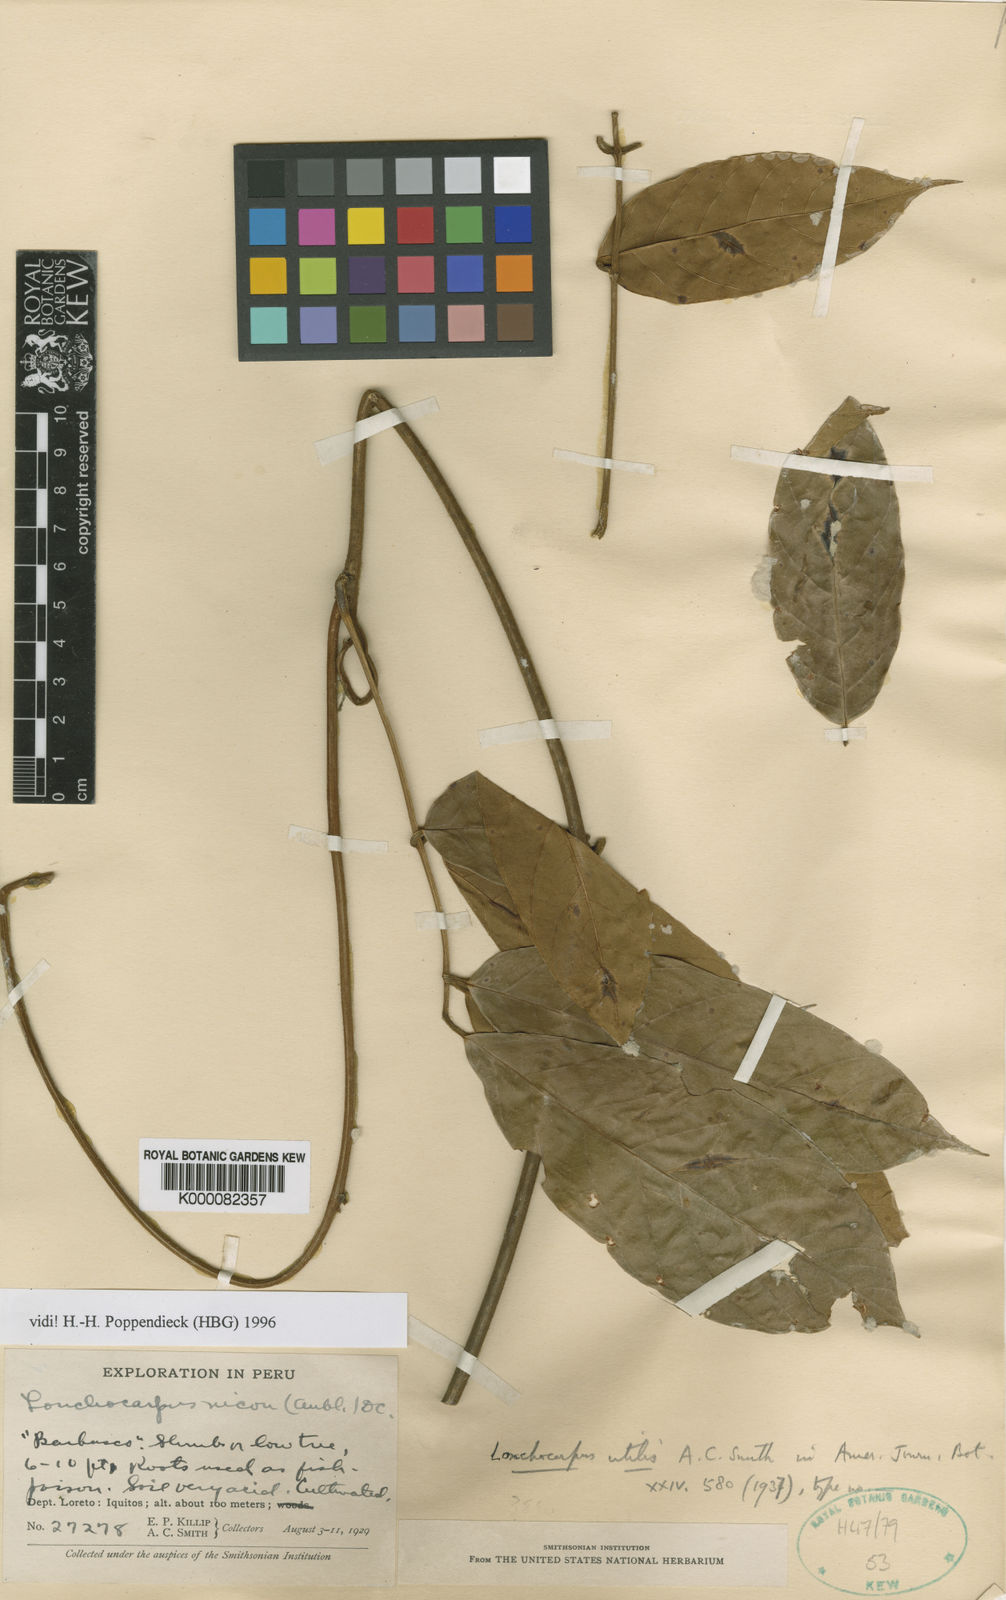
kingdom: Plantae
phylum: Tracheophyta
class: Magnoliopsida
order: Fabales
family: Fabaceae
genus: Lonchocarpus
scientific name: Lonchocarpus
